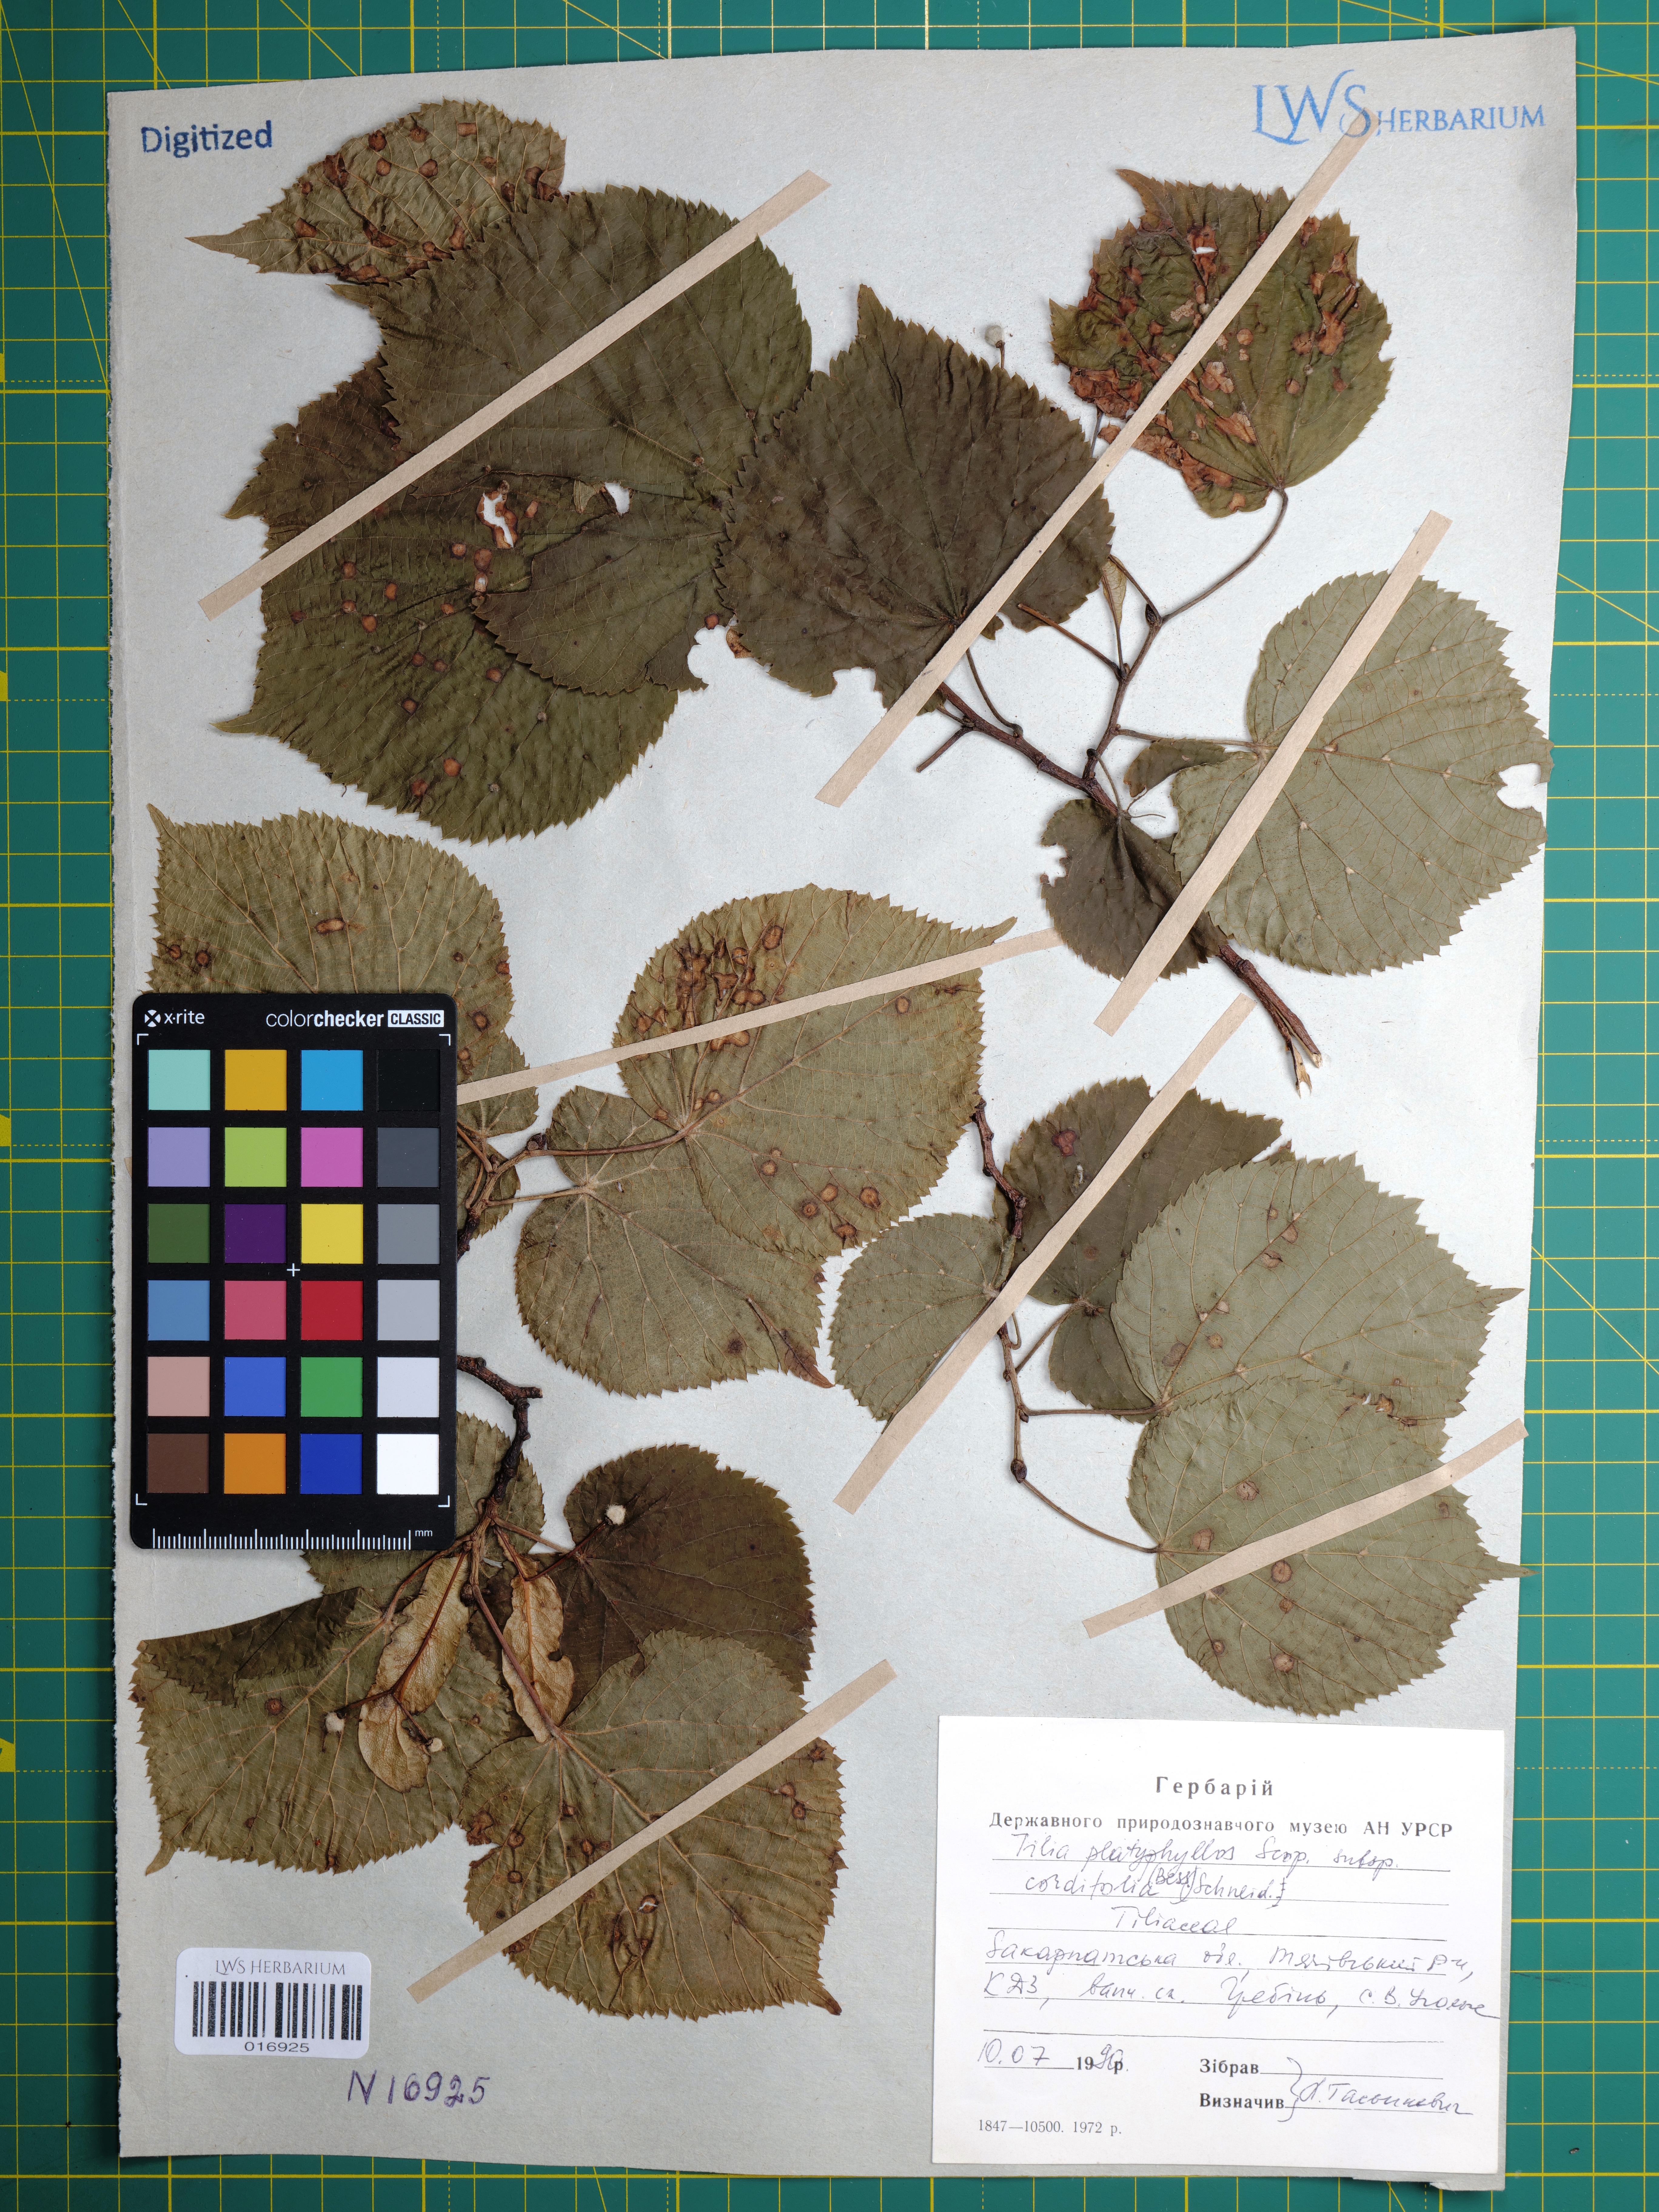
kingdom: Plantae
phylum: Tracheophyta
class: Magnoliopsida
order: Malvales
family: Malvaceae
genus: Tilia
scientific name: Tilia platyphyllos
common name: Large-leaved lime
